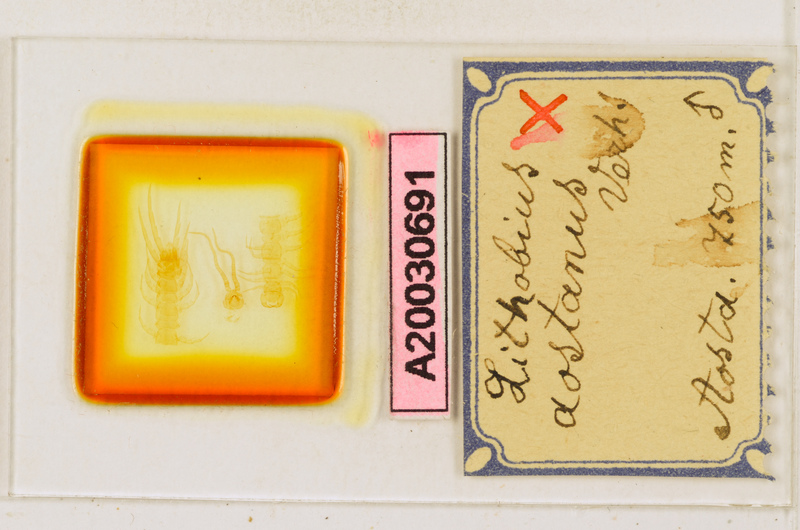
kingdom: Animalia
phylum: Arthropoda
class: Chilopoda
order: Lithobiomorpha
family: Lithobiidae
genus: Lithobius
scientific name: Lithobius aostanus
